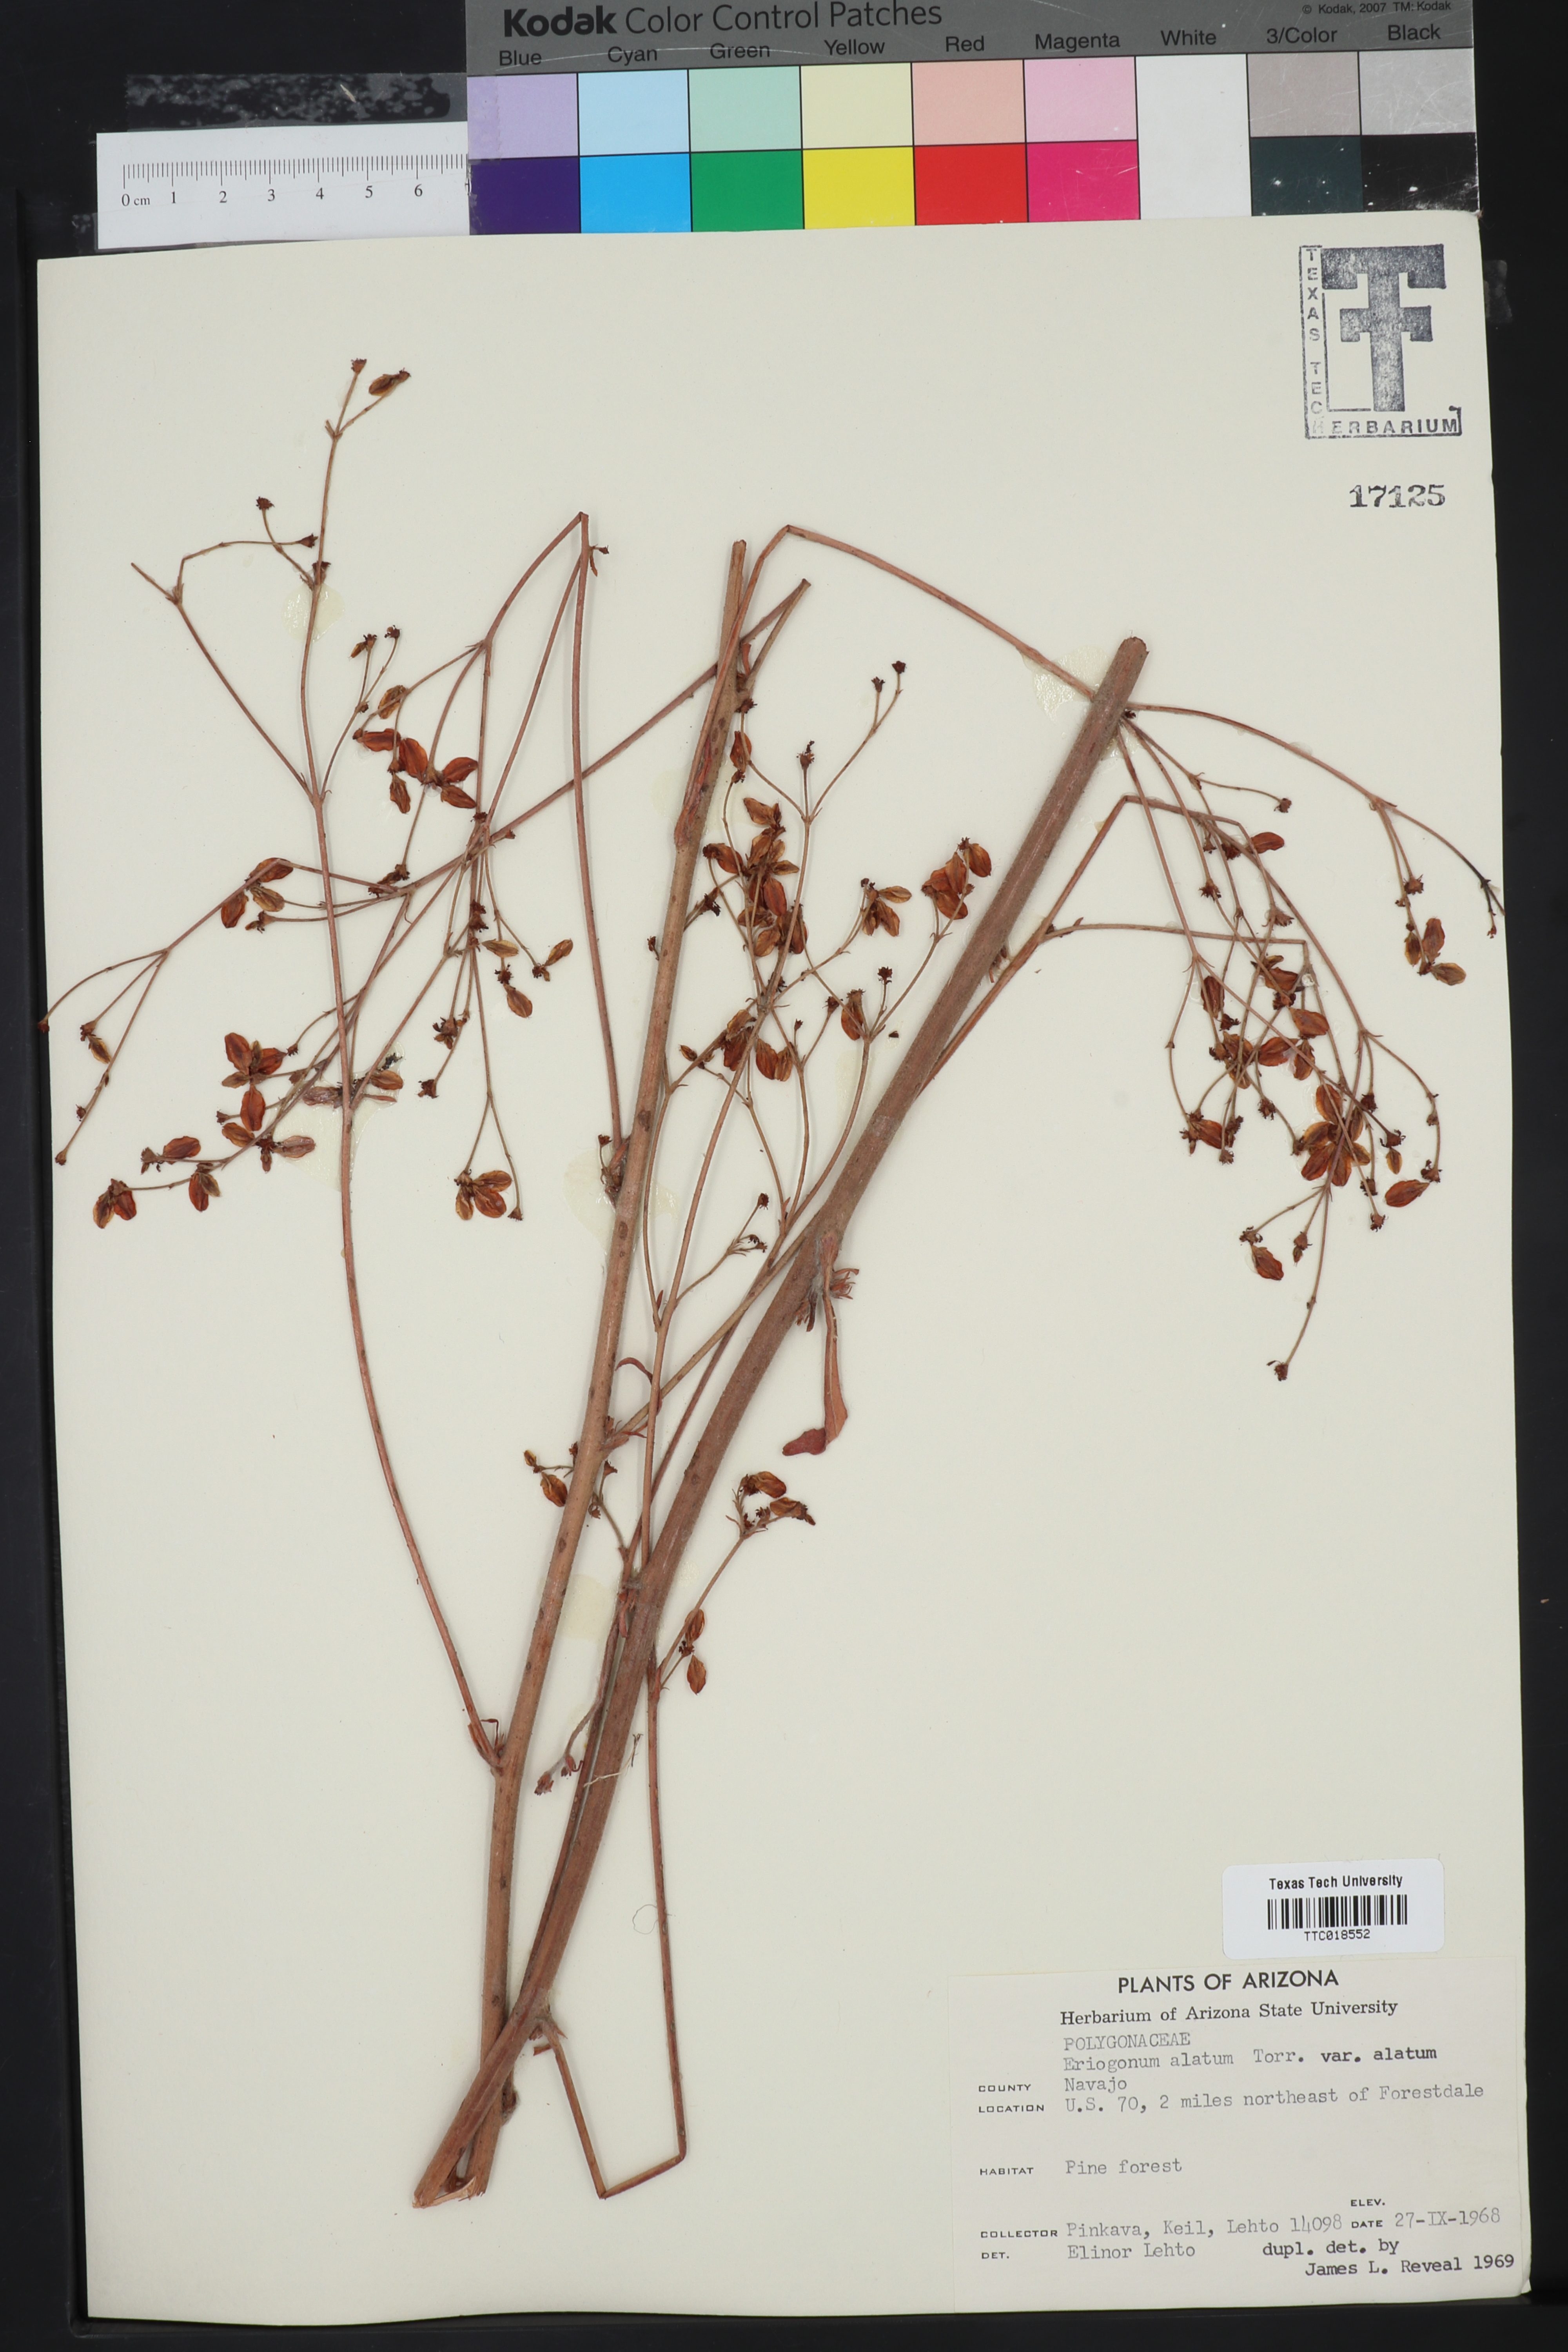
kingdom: Plantae
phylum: Tracheophyta
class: Magnoliopsida
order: Caryophyllales
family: Polygonaceae
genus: Eriogonum
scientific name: Eriogonum alatum
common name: Winged eriogonum
